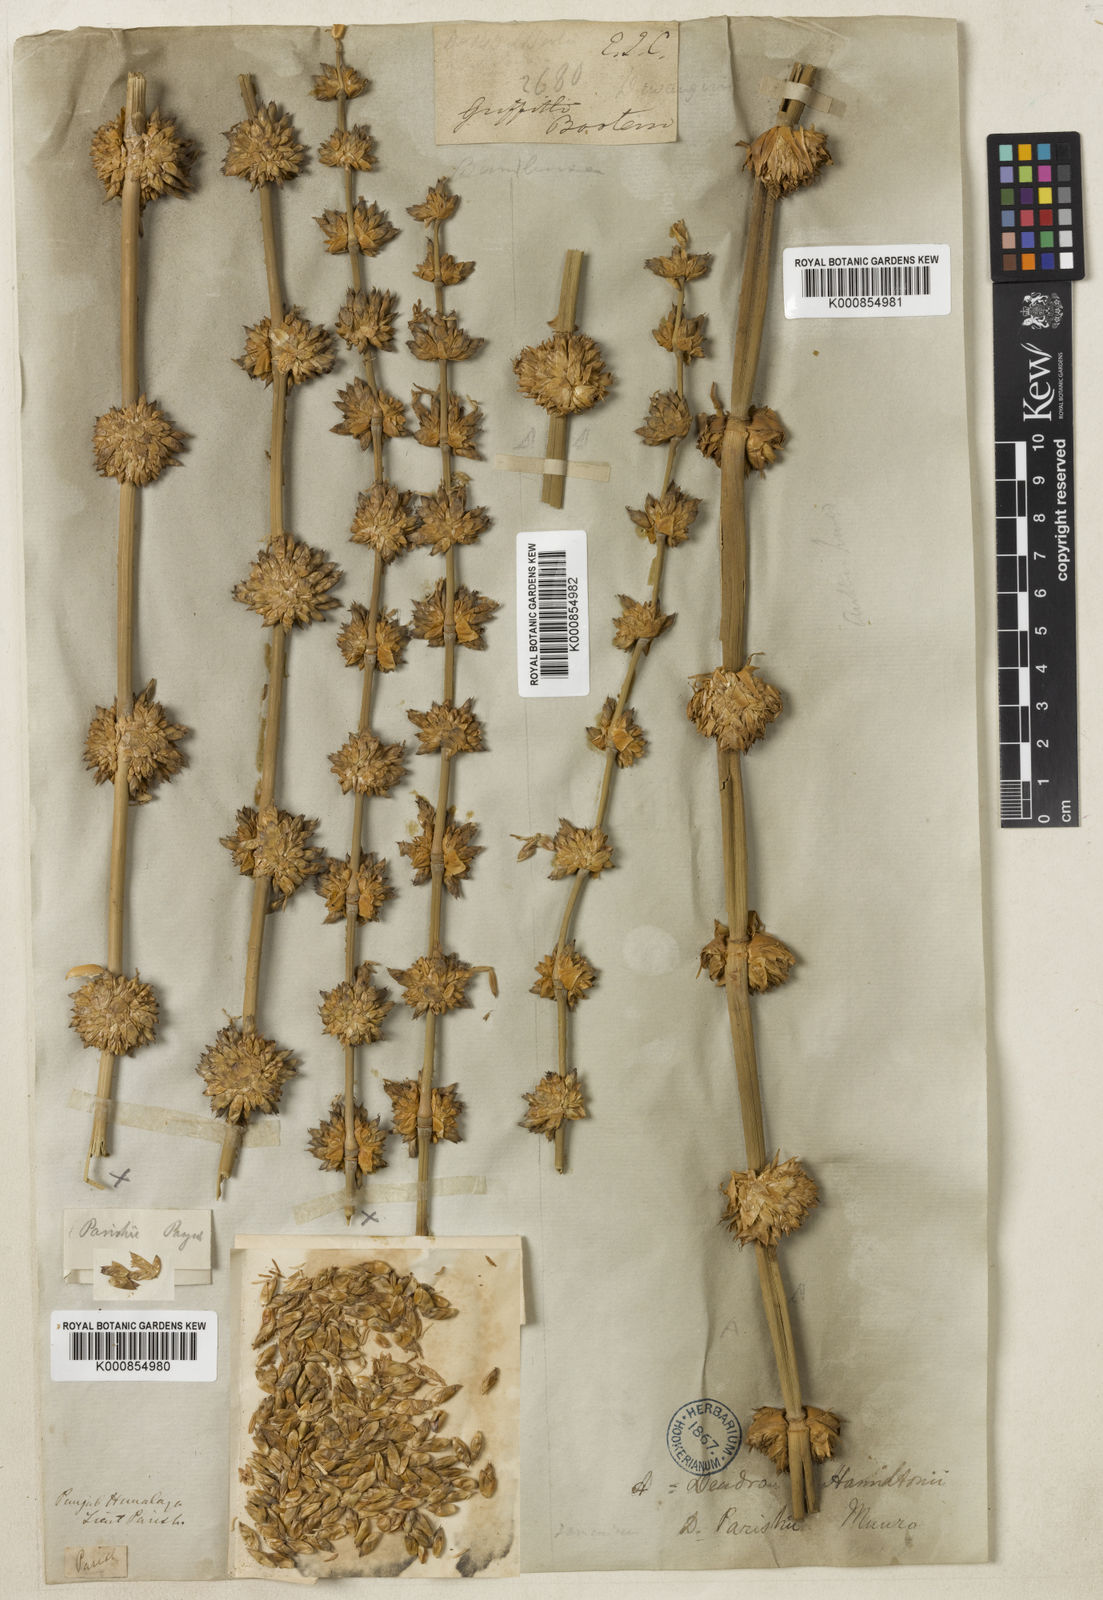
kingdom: Plantae
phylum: Tracheophyta
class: Liliopsida
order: Poales
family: Poaceae
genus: Dendrocalamus
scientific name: Dendrocalamus parishii
